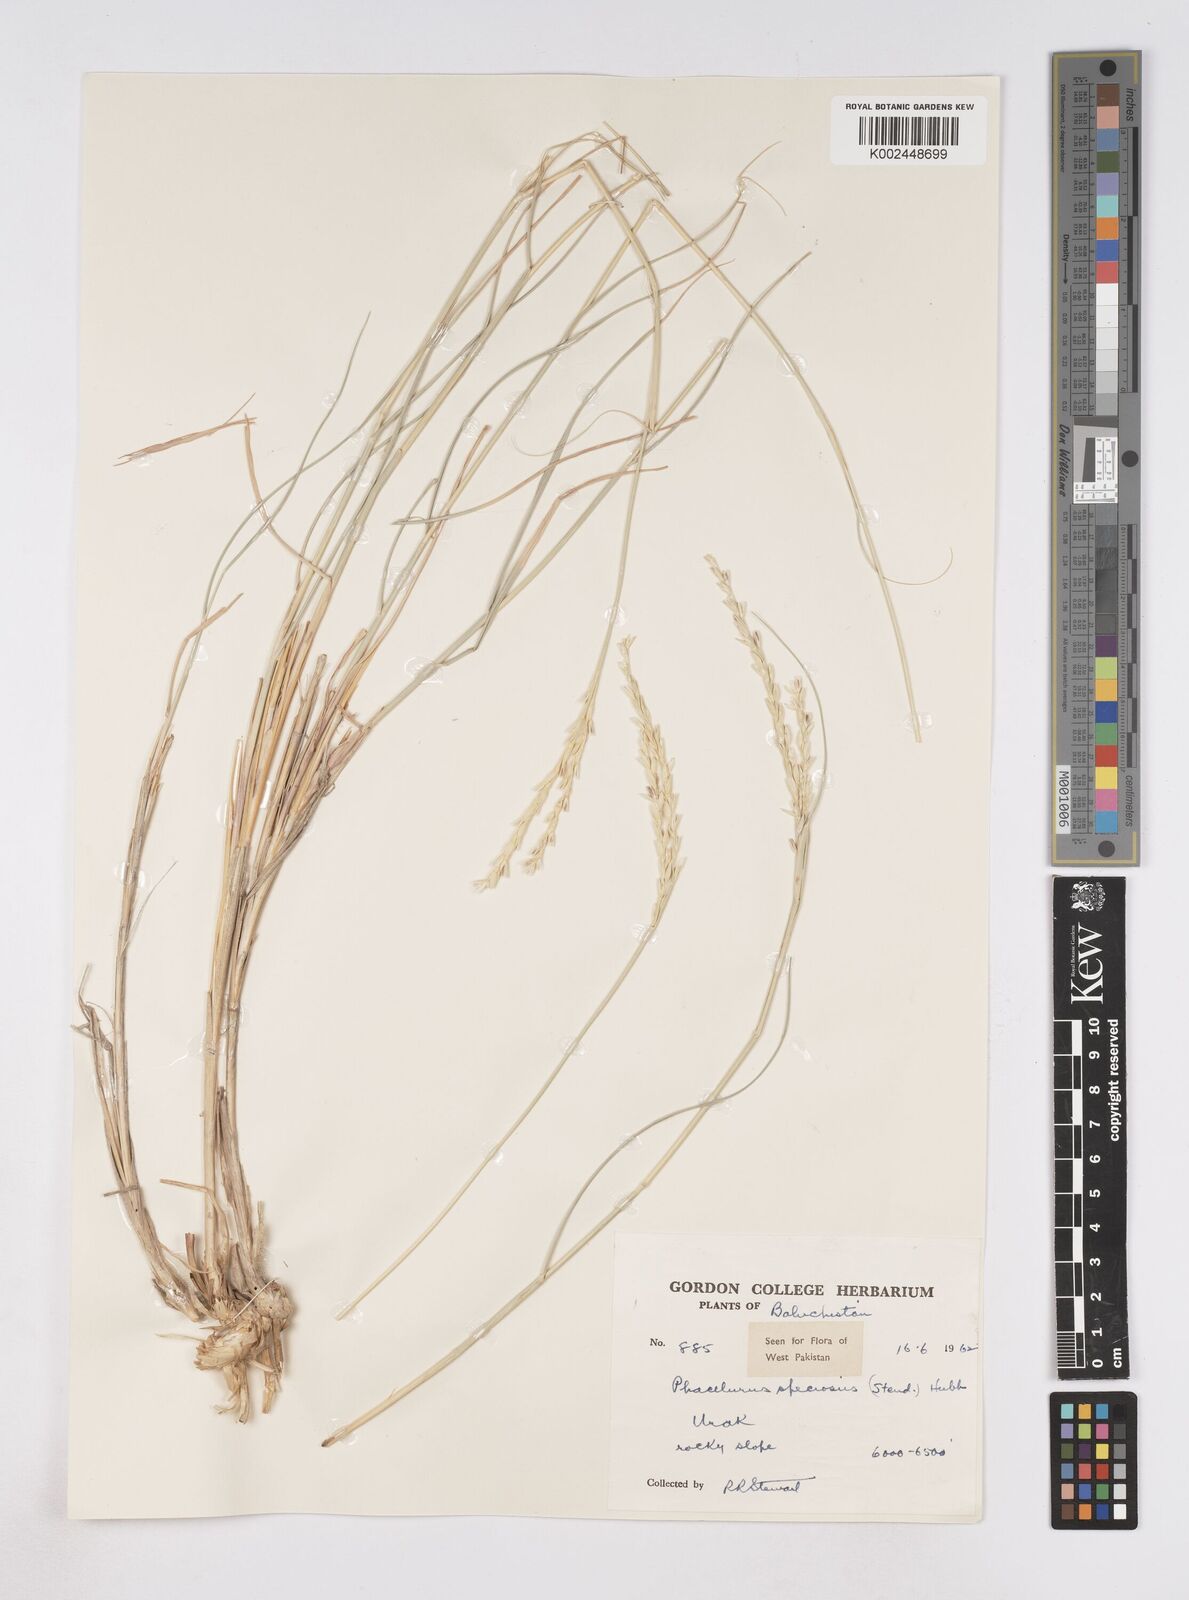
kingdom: Plantae
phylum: Tracheophyta
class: Liliopsida
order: Poales
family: Poaceae
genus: Phacelurus
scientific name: Phacelurus speciosus
